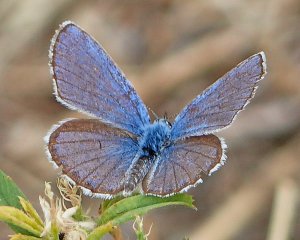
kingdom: Animalia
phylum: Arthropoda
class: Insecta
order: Lepidoptera
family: Lycaenidae
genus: Lycaeides
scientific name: Lycaeides melissa
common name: Melissa Blue
